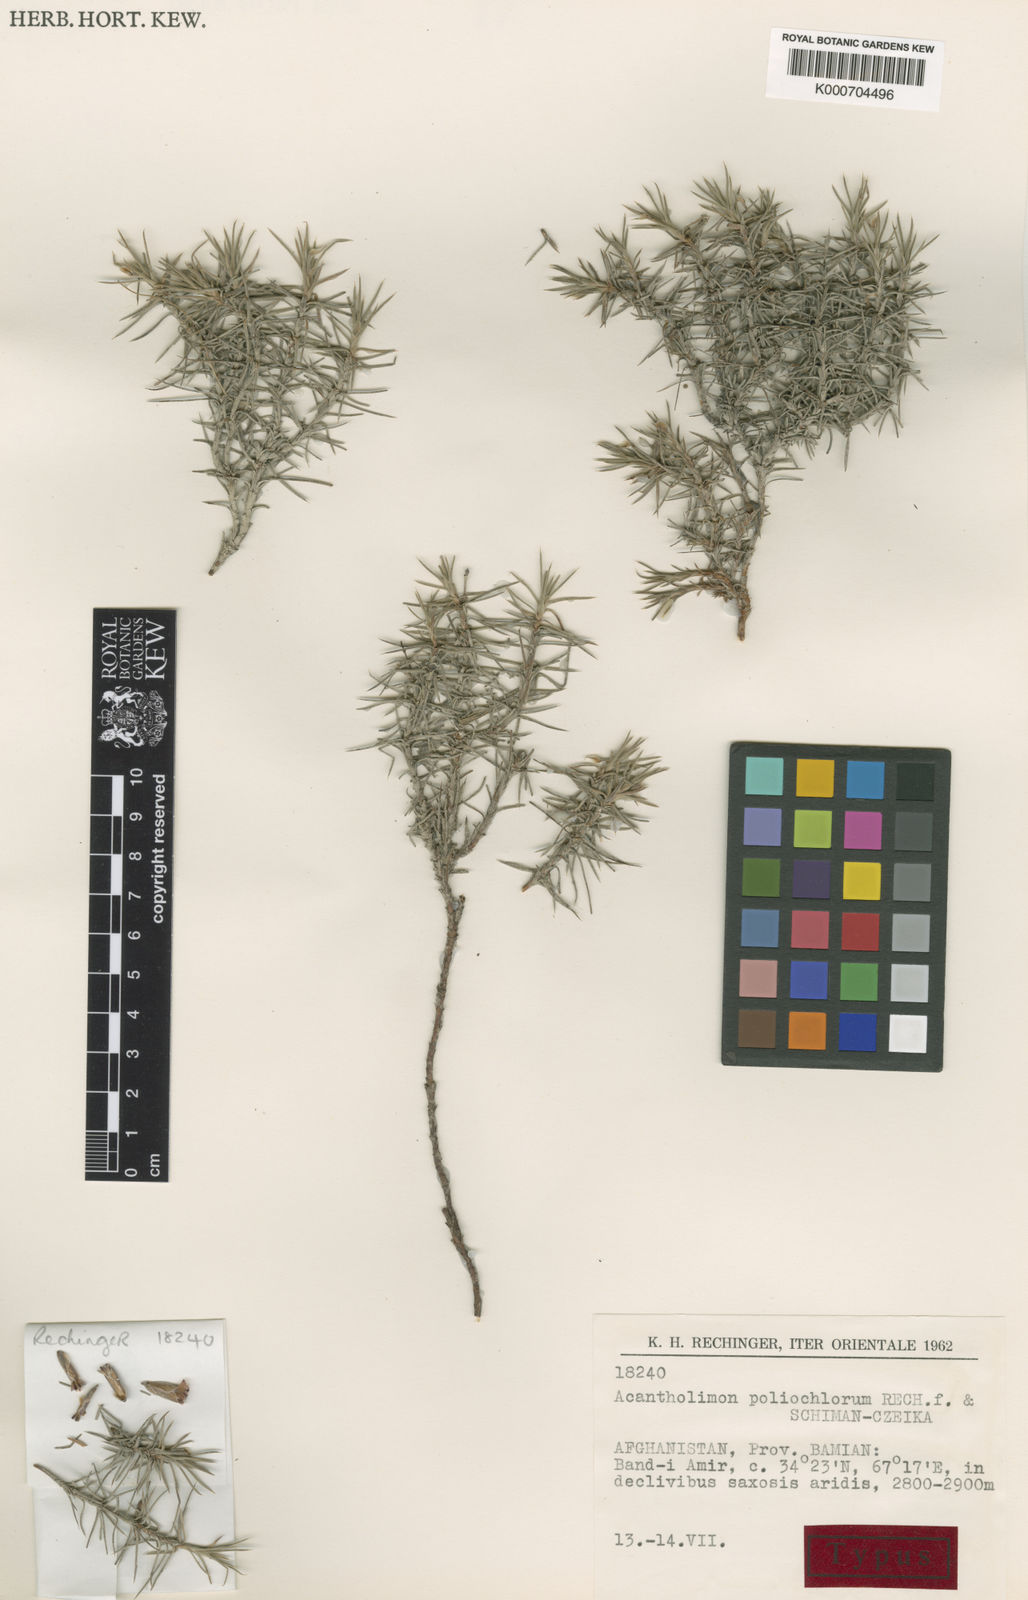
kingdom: Plantae
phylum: Tracheophyta
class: Magnoliopsida
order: Caryophyllales
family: Plumbaginaceae
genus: Acantholimon
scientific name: Acantholimon poliochlorum
